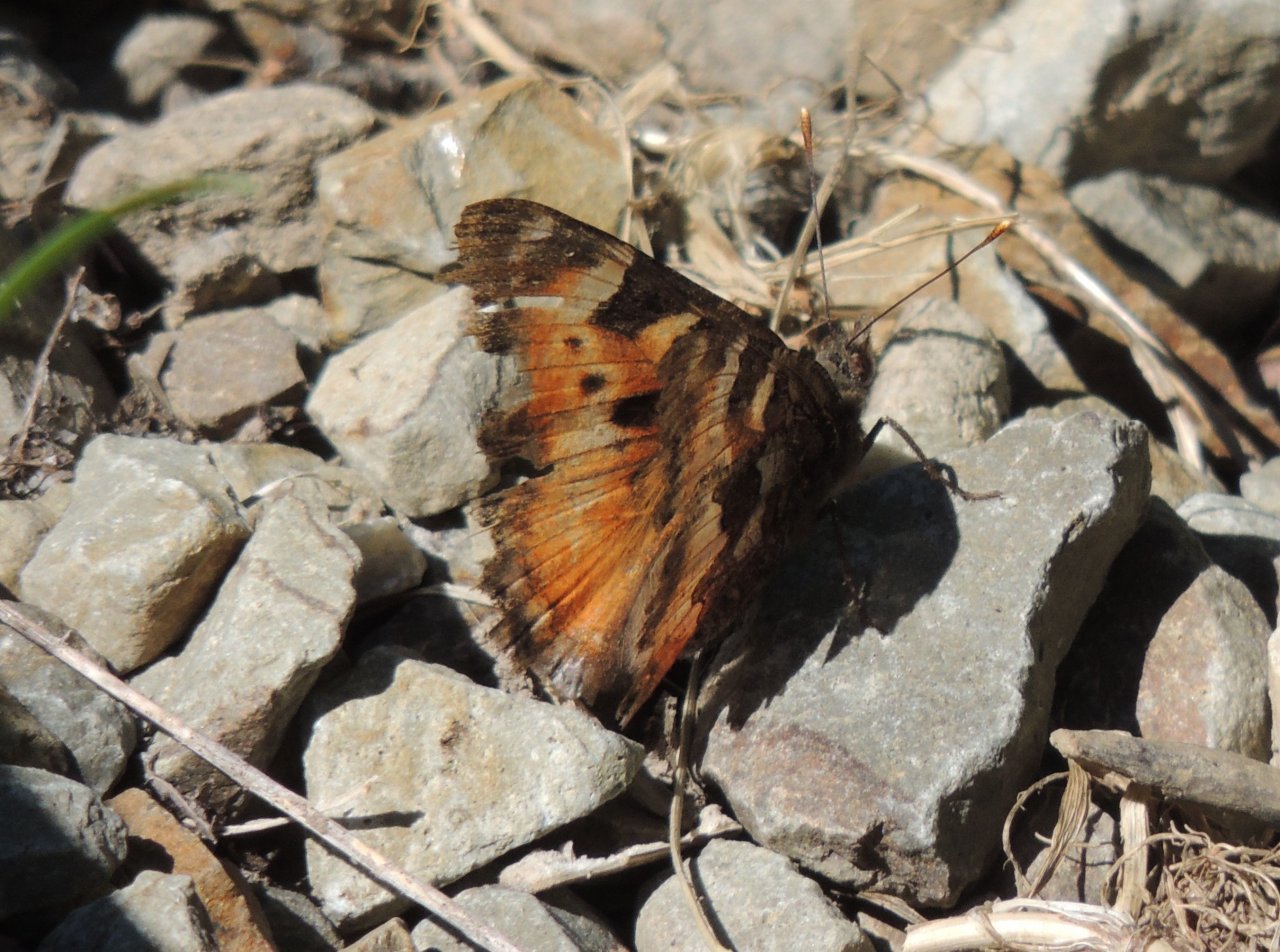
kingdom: Animalia
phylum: Arthropoda
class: Insecta
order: Lepidoptera
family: Nymphalidae
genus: Nymphalis
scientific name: Nymphalis californica
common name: California Tortoiseshell
